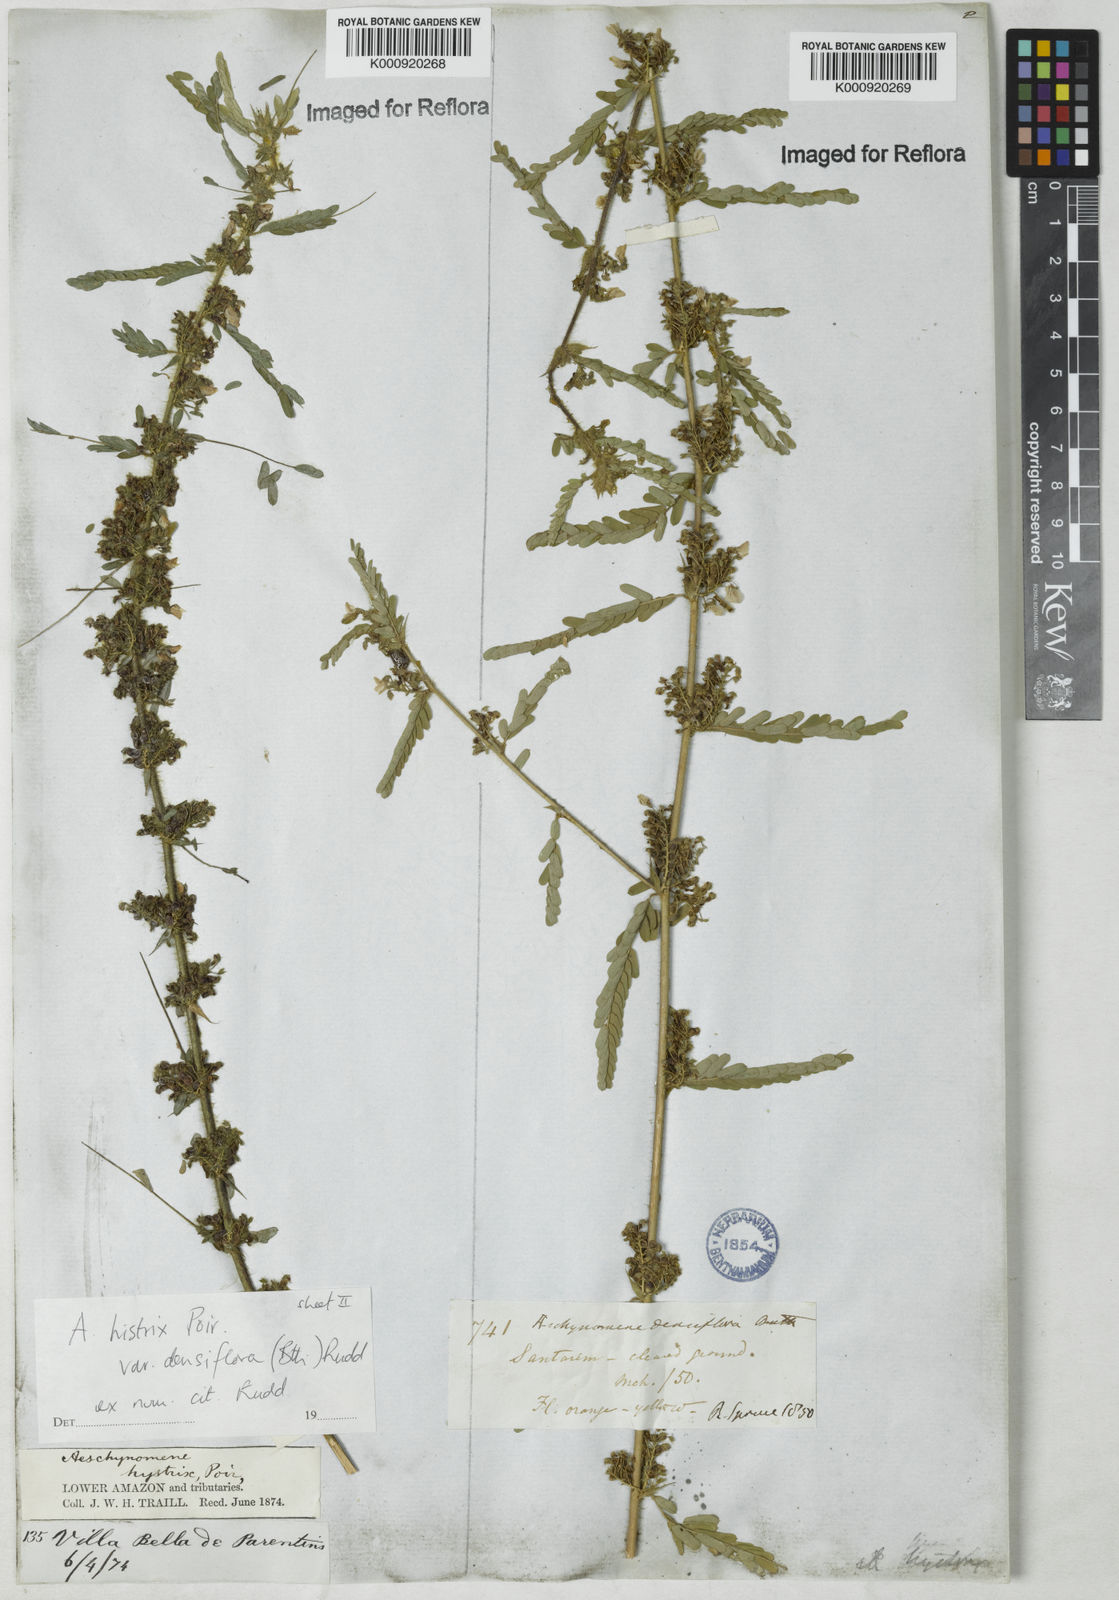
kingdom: Plantae
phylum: Tracheophyta
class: Magnoliopsida
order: Fabales
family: Fabaceae
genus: Ctenodon
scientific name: Ctenodon histrix
